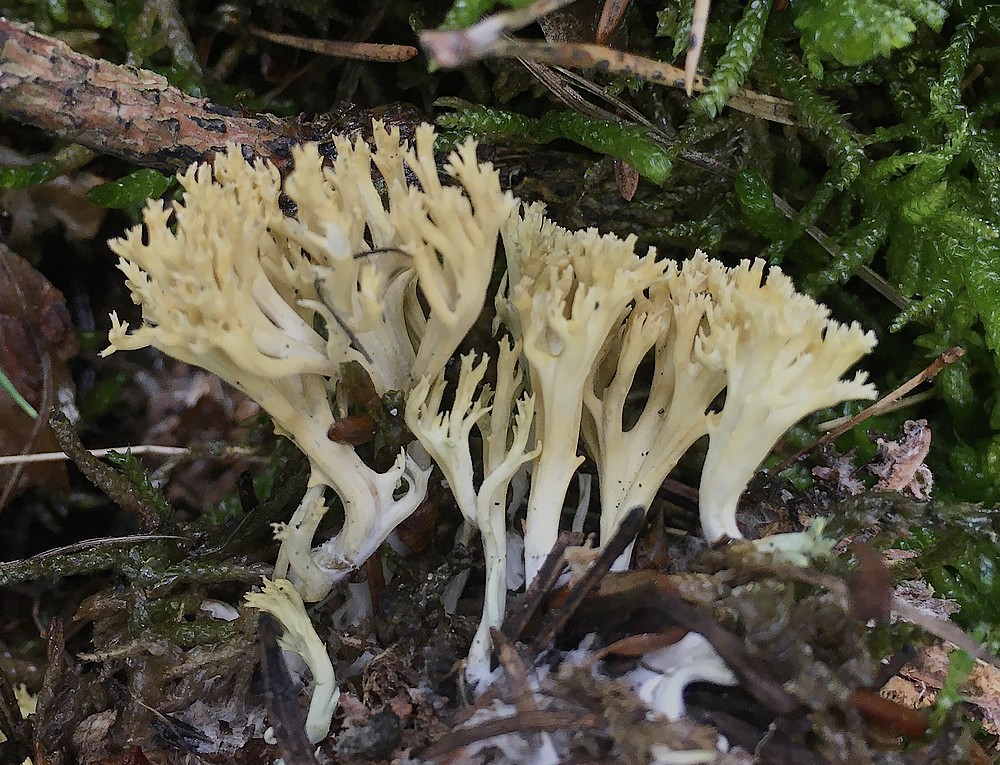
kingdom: Fungi
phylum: Basidiomycota
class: Agaricomycetes
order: Gomphales
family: Gomphaceae
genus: Phaeoclavulina
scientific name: Phaeoclavulina eumorpha
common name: gran-koralsvamp
